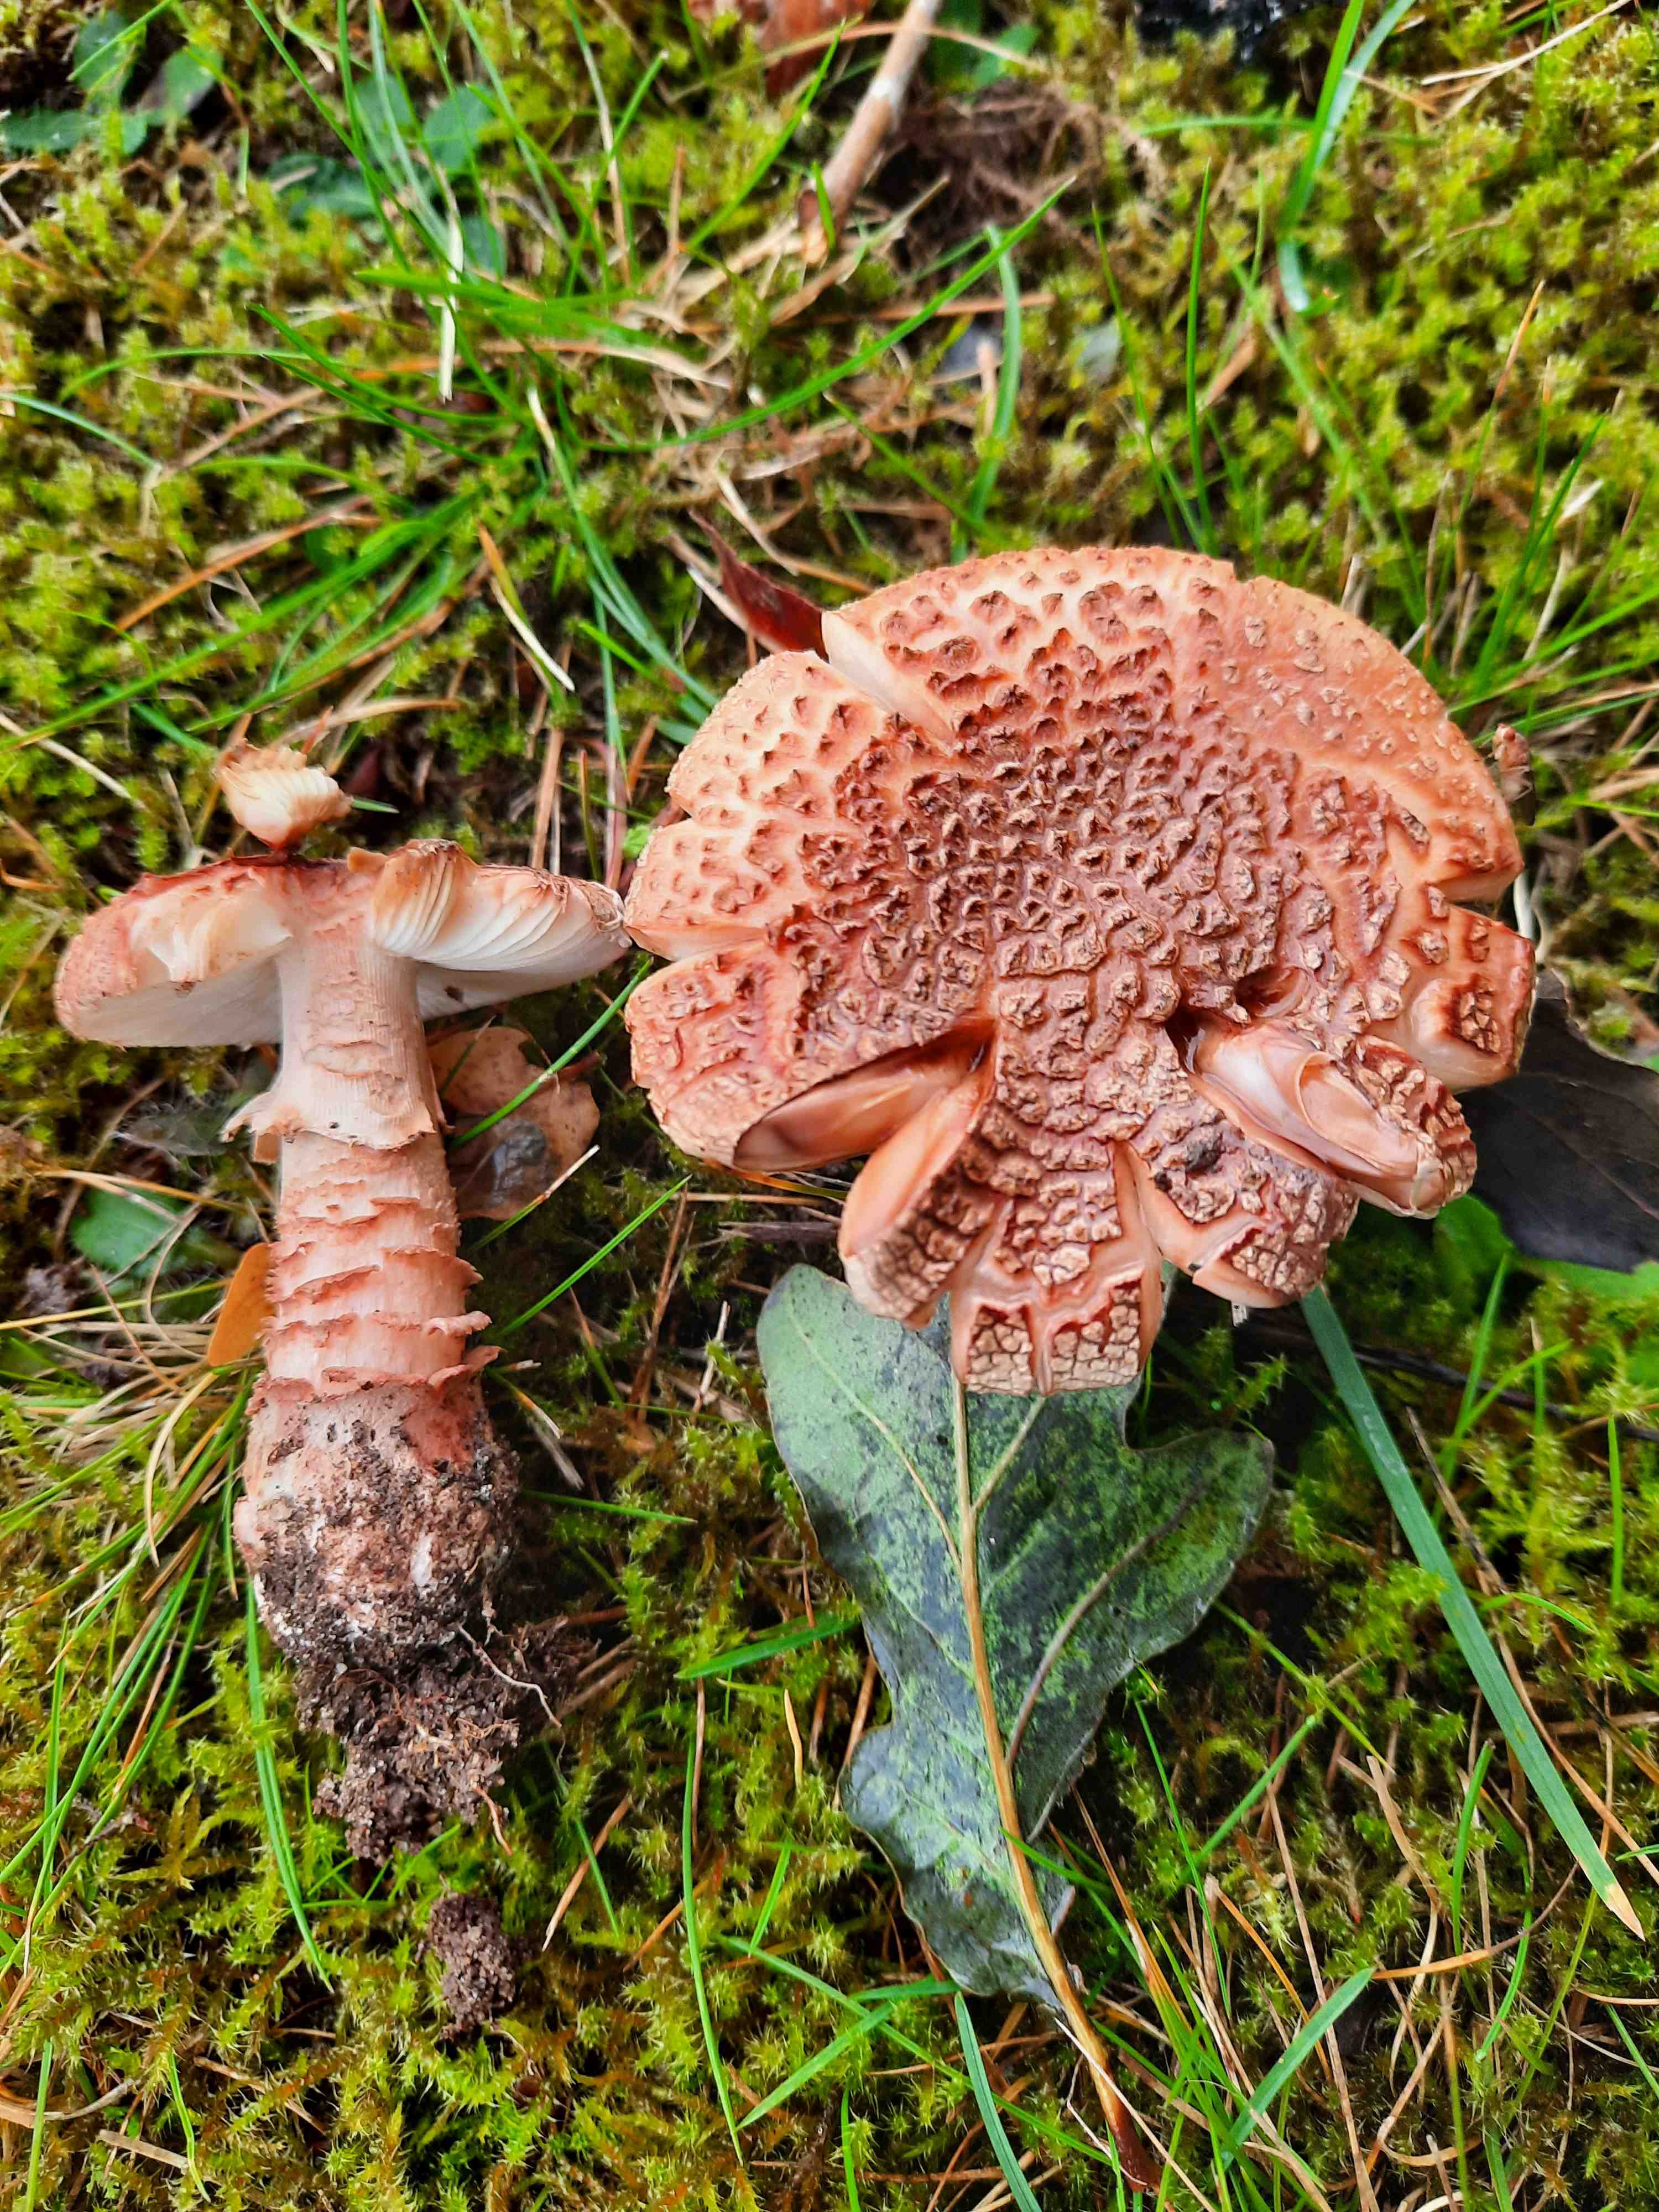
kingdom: Fungi
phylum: Basidiomycota
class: Agaricomycetes
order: Agaricales
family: Amanitaceae
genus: Amanita
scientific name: Amanita rubescens
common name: rødmende fluesvamp
